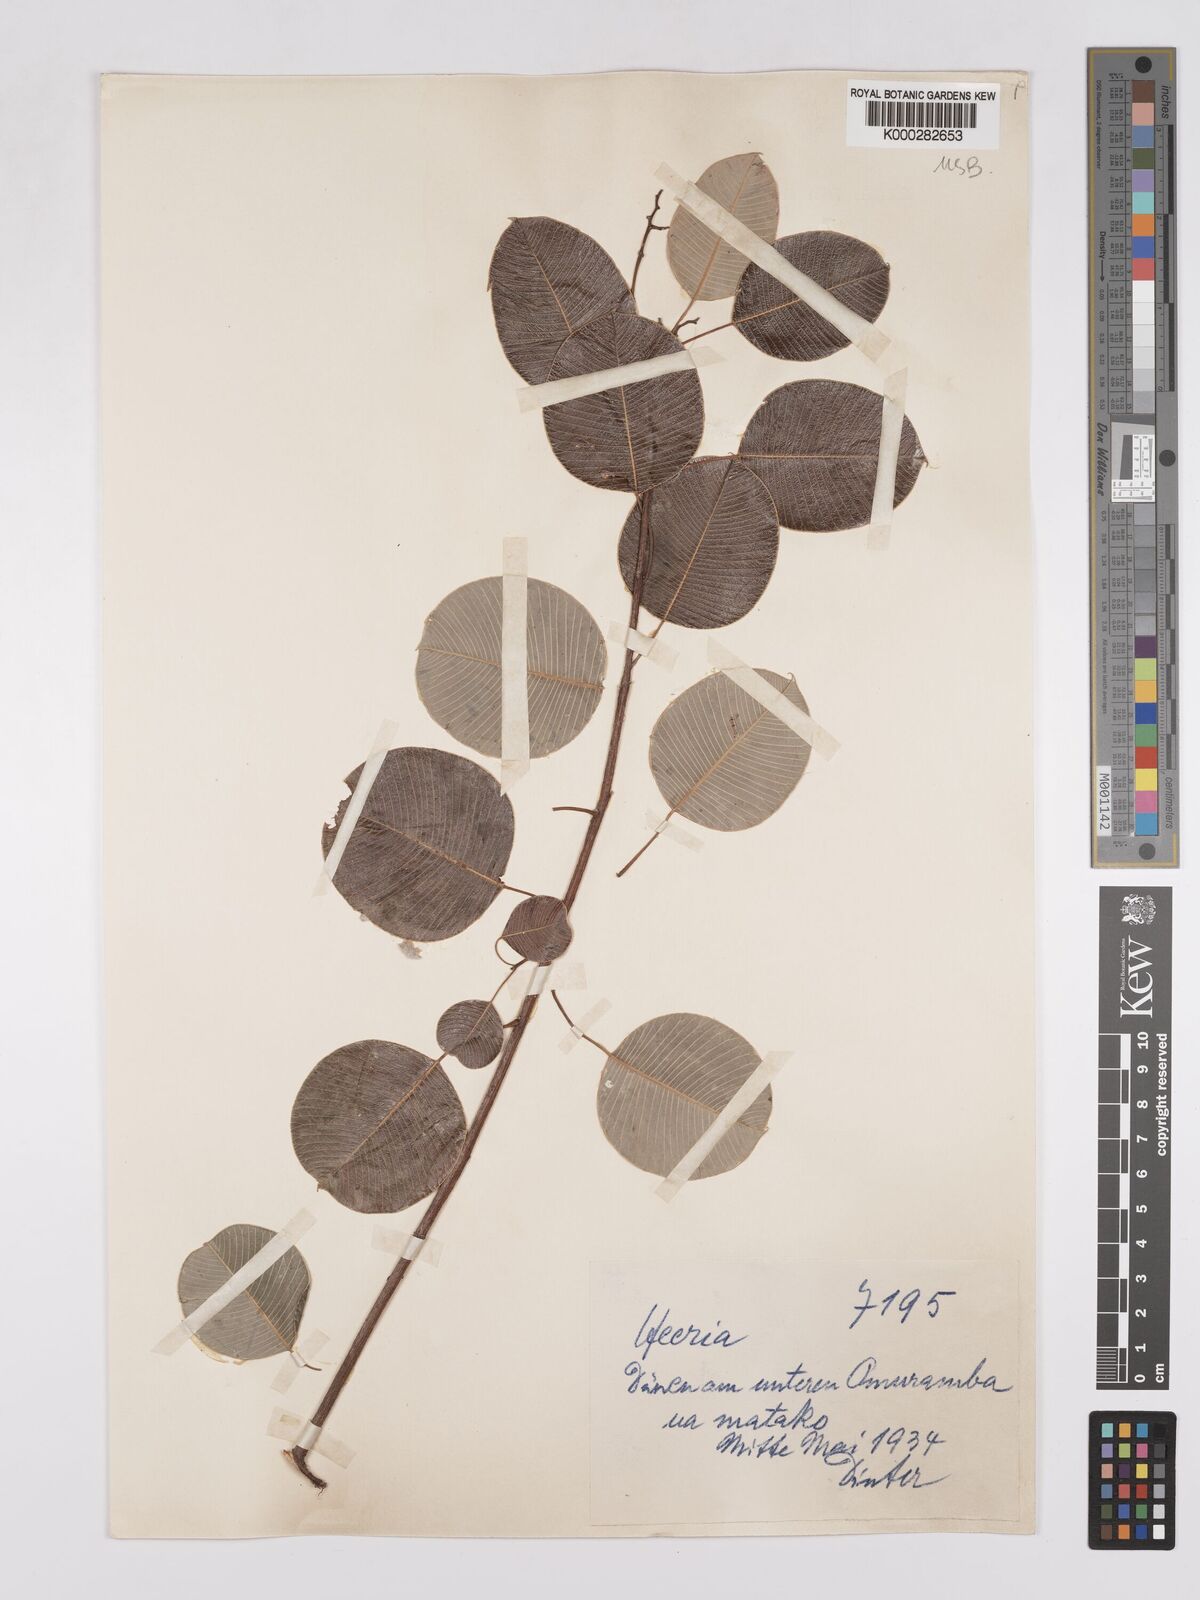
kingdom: Plantae
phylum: Tracheophyta
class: Magnoliopsida
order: Sapindales
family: Anacardiaceae
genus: Ozoroa
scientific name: Ozoroa longipes
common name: Round-leaved resin tree
